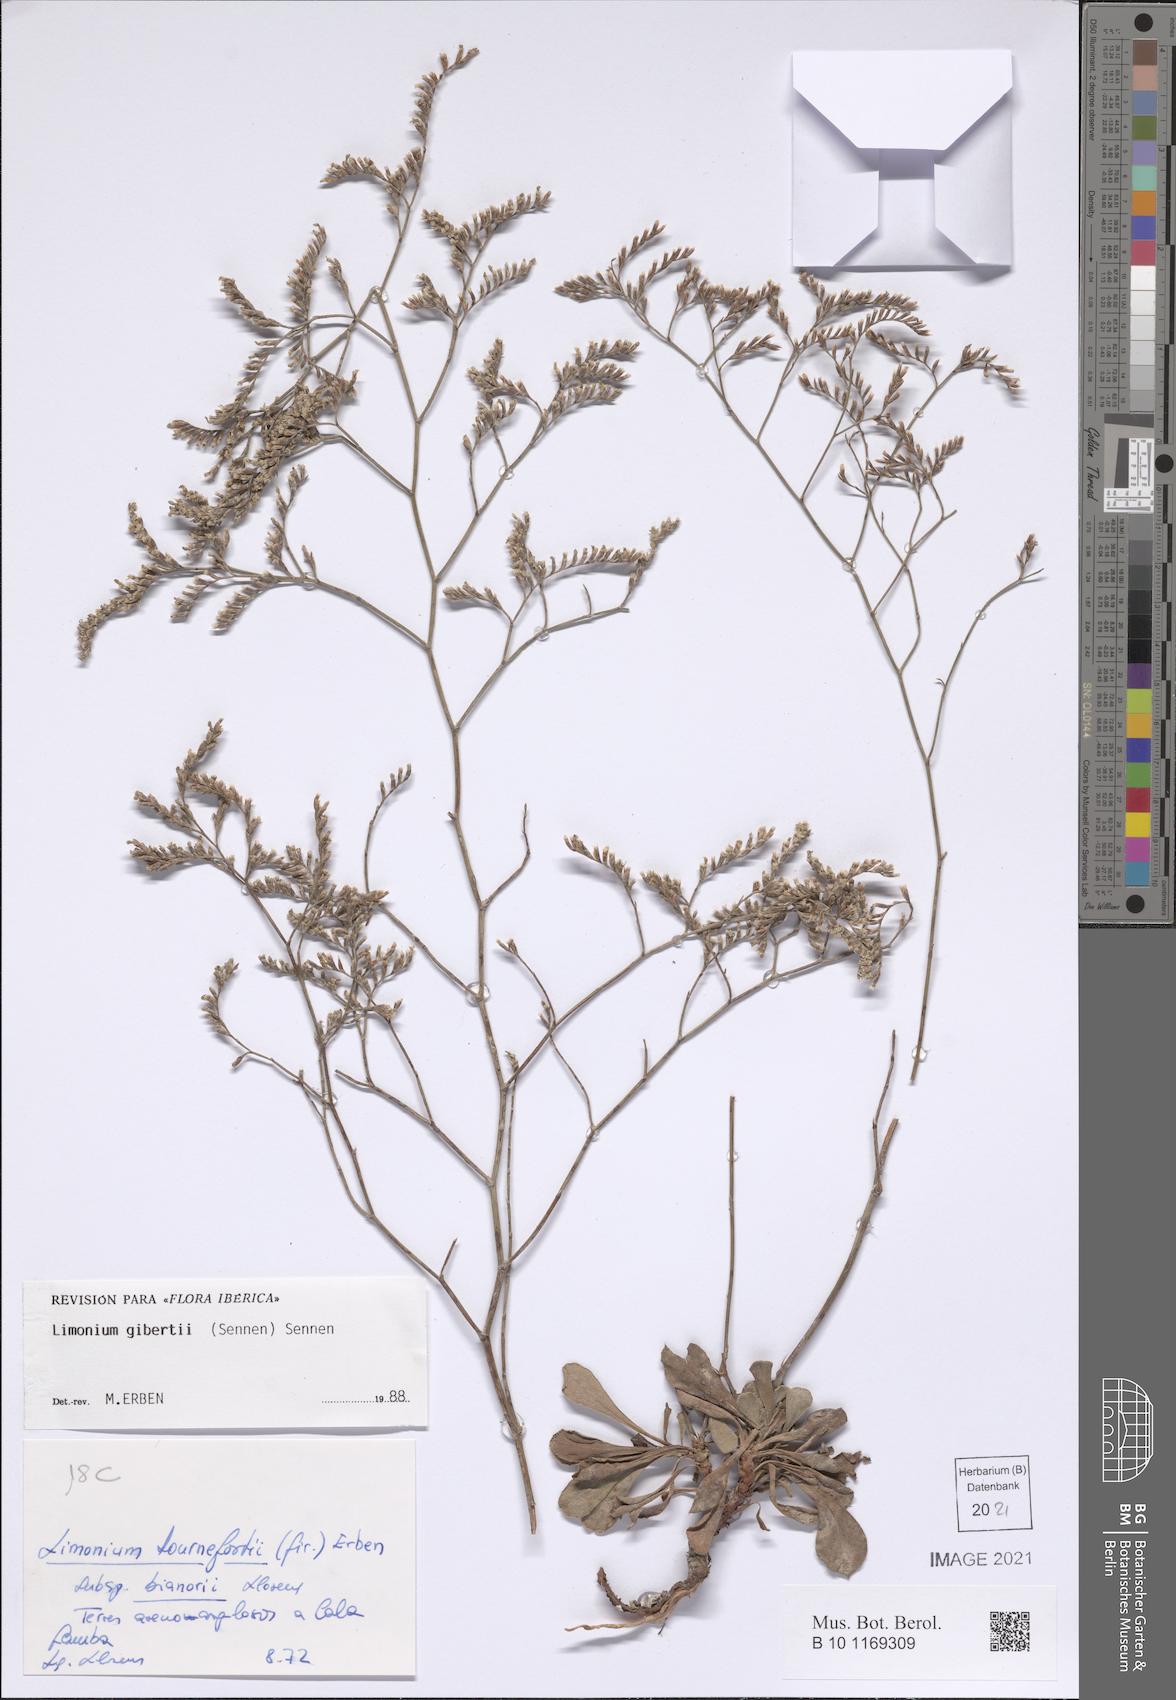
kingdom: Plantae
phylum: Tracheophyta
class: Magnoliopsida
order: Caryophyllales
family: Plumbaginaceae
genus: Limonium
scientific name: Limonium gibertii
